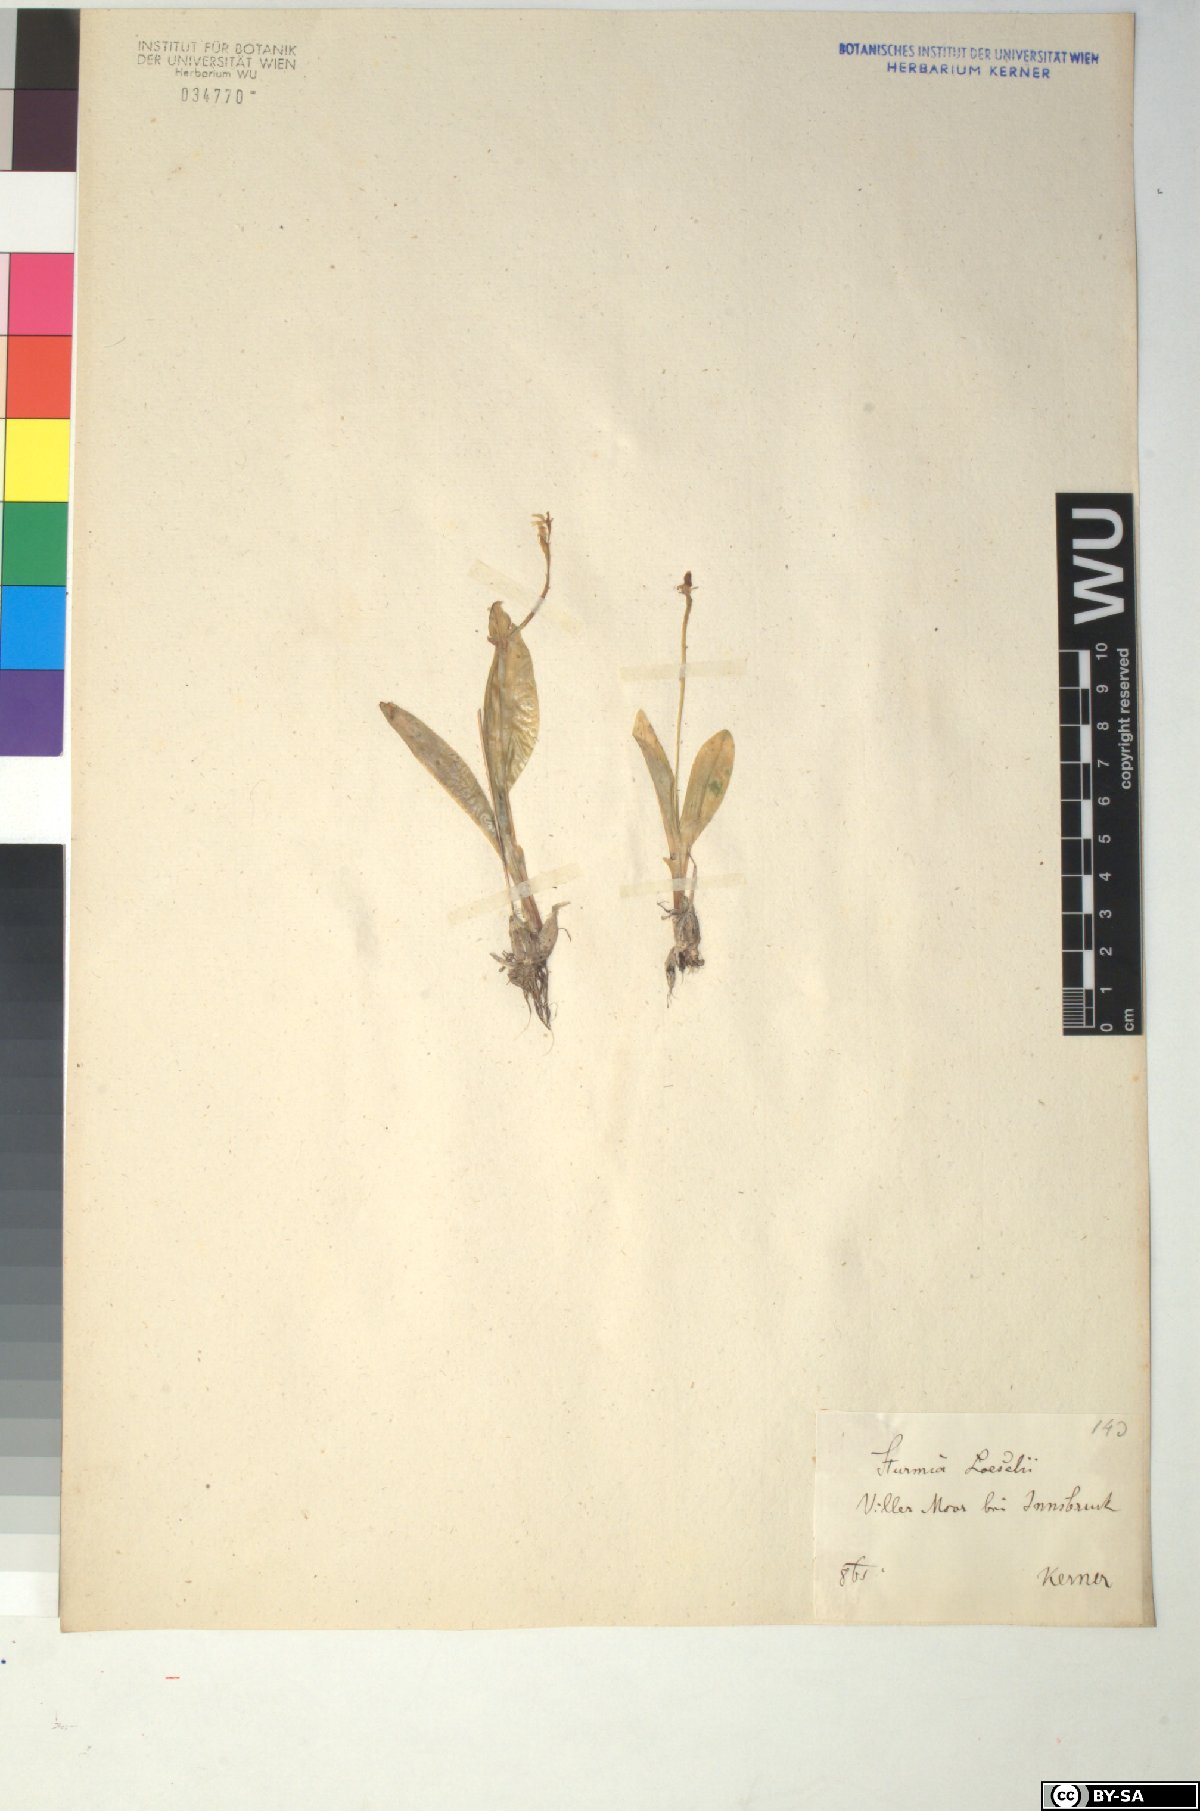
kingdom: Animalia
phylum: Arthropoda
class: Insecta
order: Coleoptera
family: Curculionidae
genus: Liparis
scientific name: Liparis loeselii
